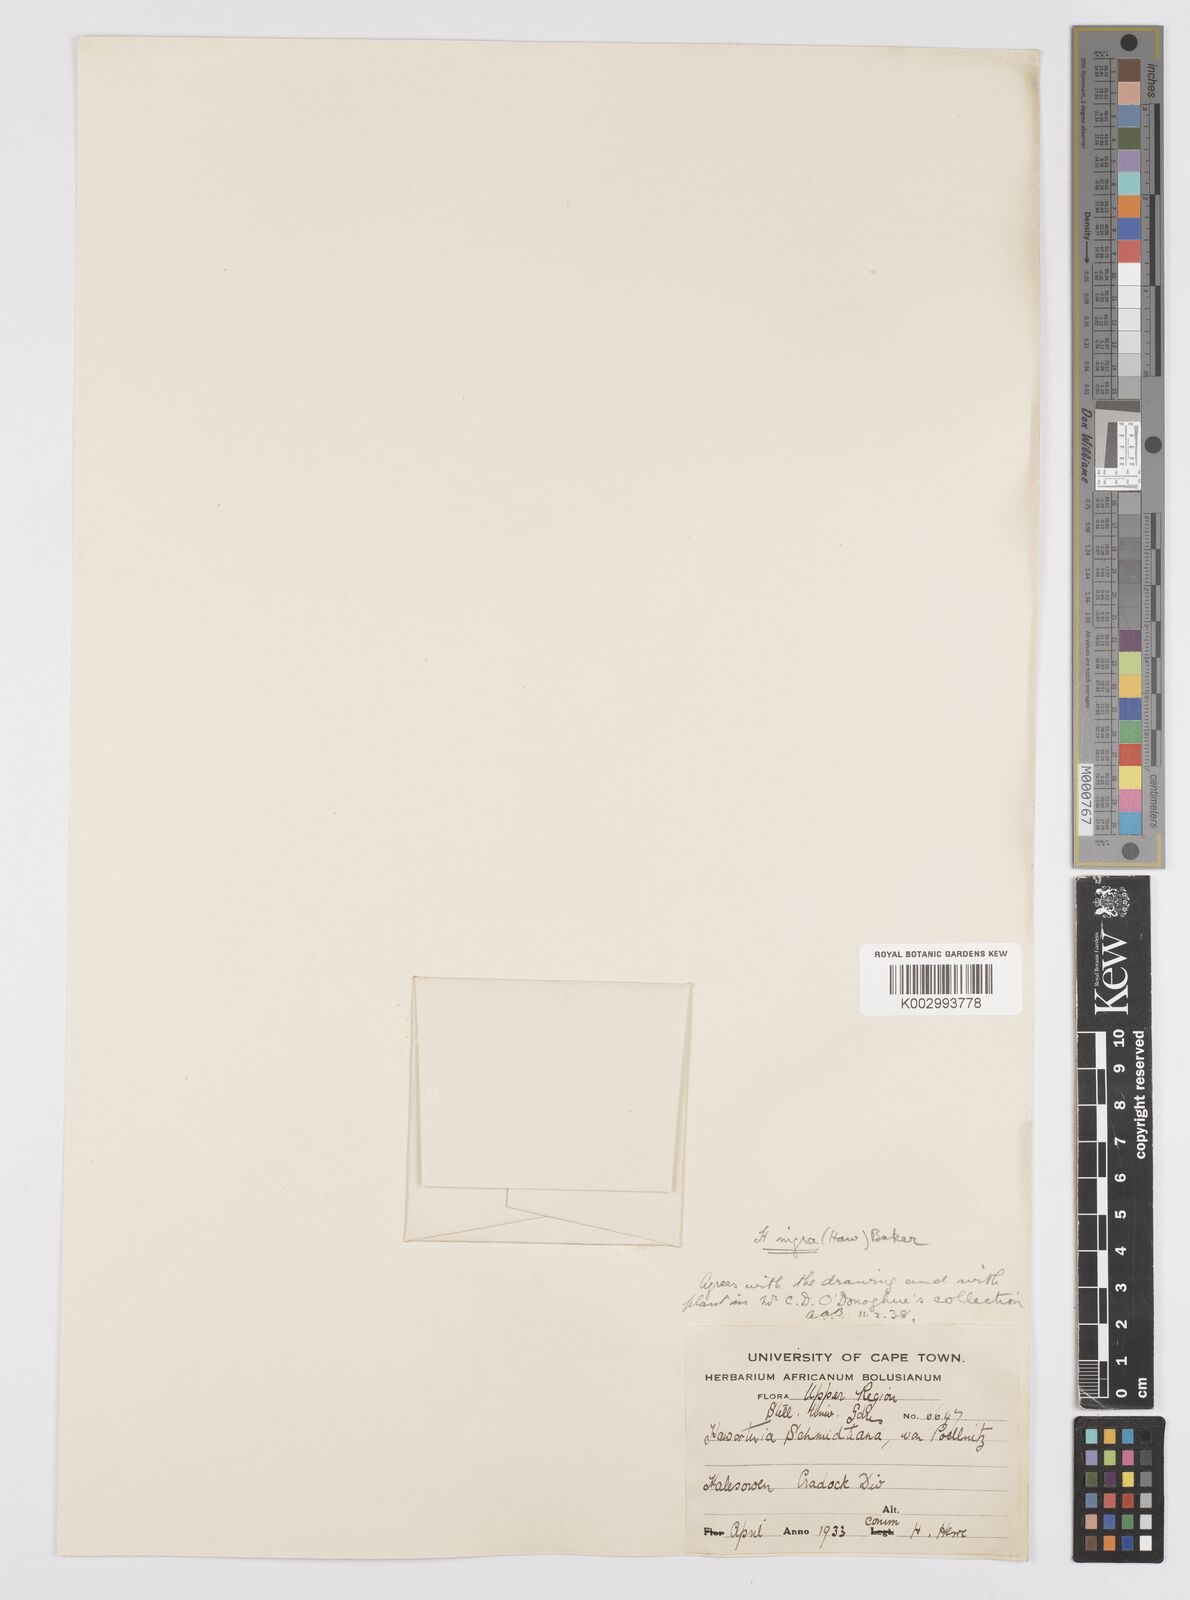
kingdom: Plantae
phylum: Tracheophyta
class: Liliopsida
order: Asparagales
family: Asphodelaceae
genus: Haworthiopsis
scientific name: Haworthiopsis nigra
